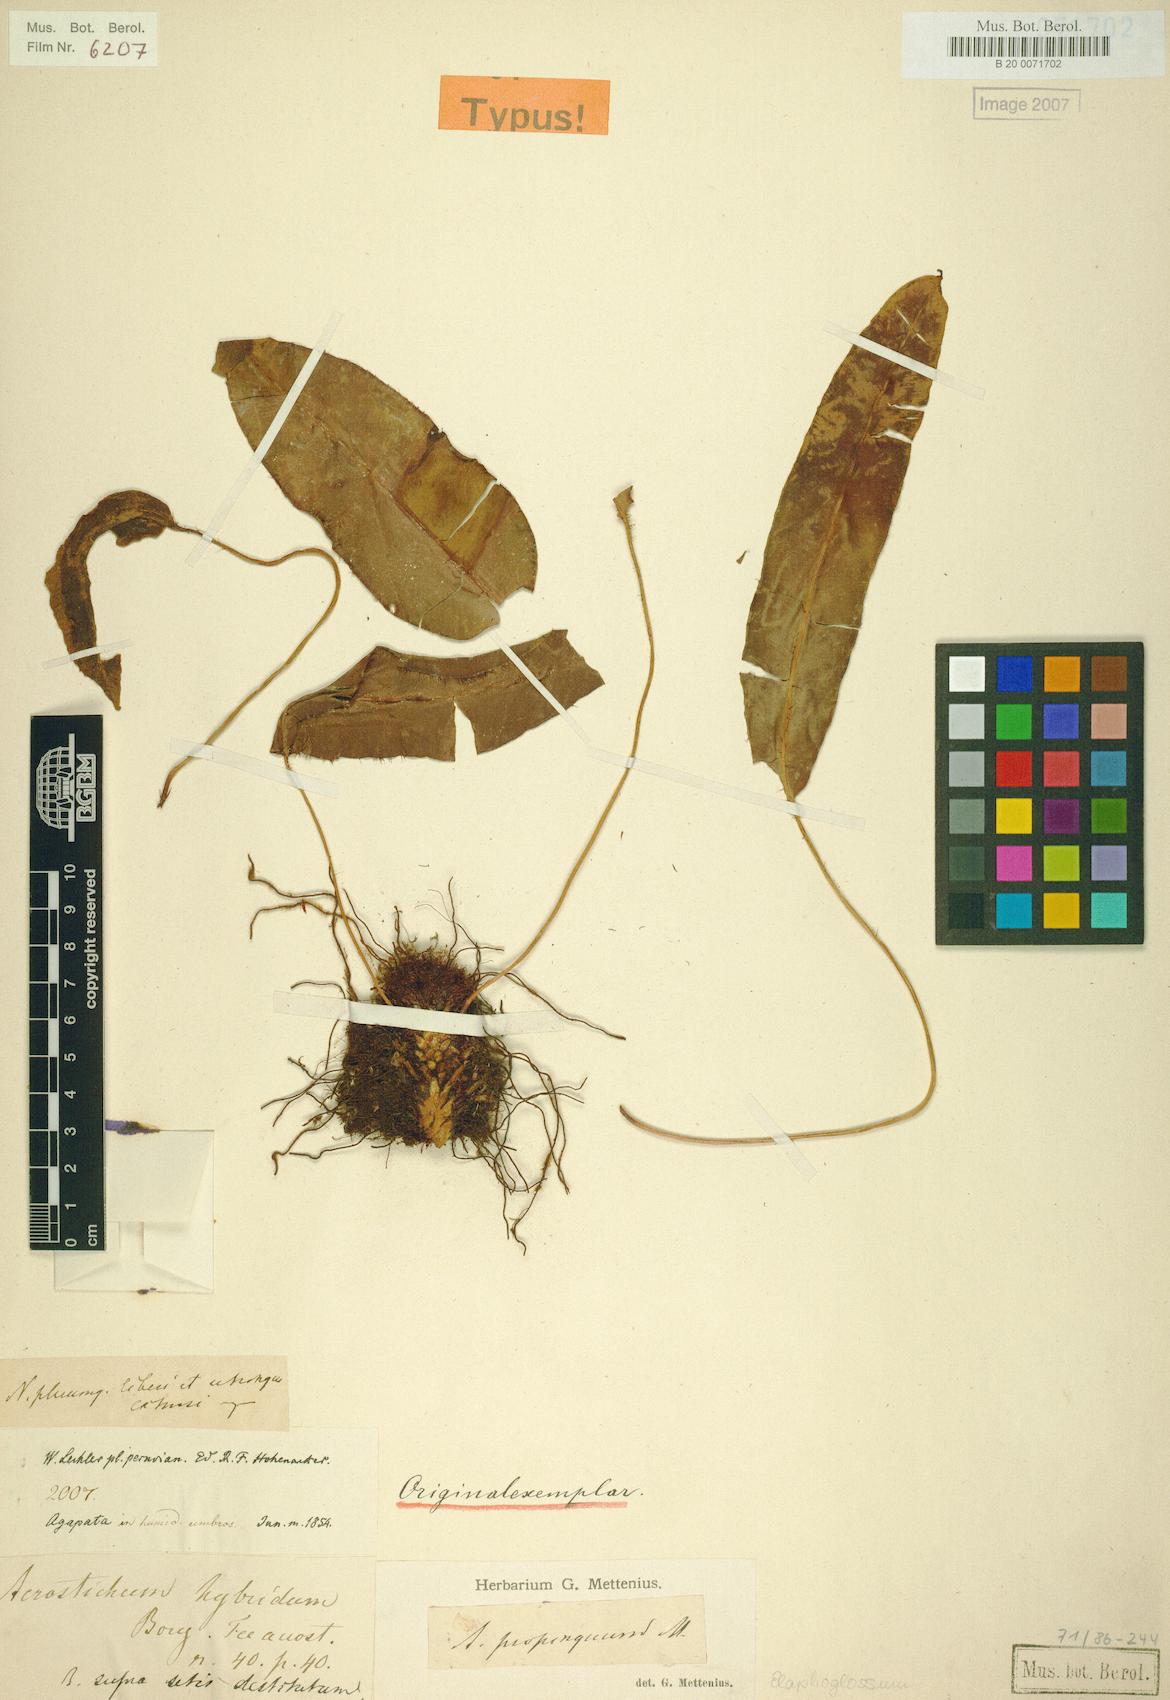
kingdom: Plantae
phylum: Tracheophyta
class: Polypodiopsida
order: Polypodiales
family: Dryopteridaceae
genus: Elaphoglossum
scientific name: Elaphoglossum hybridum
